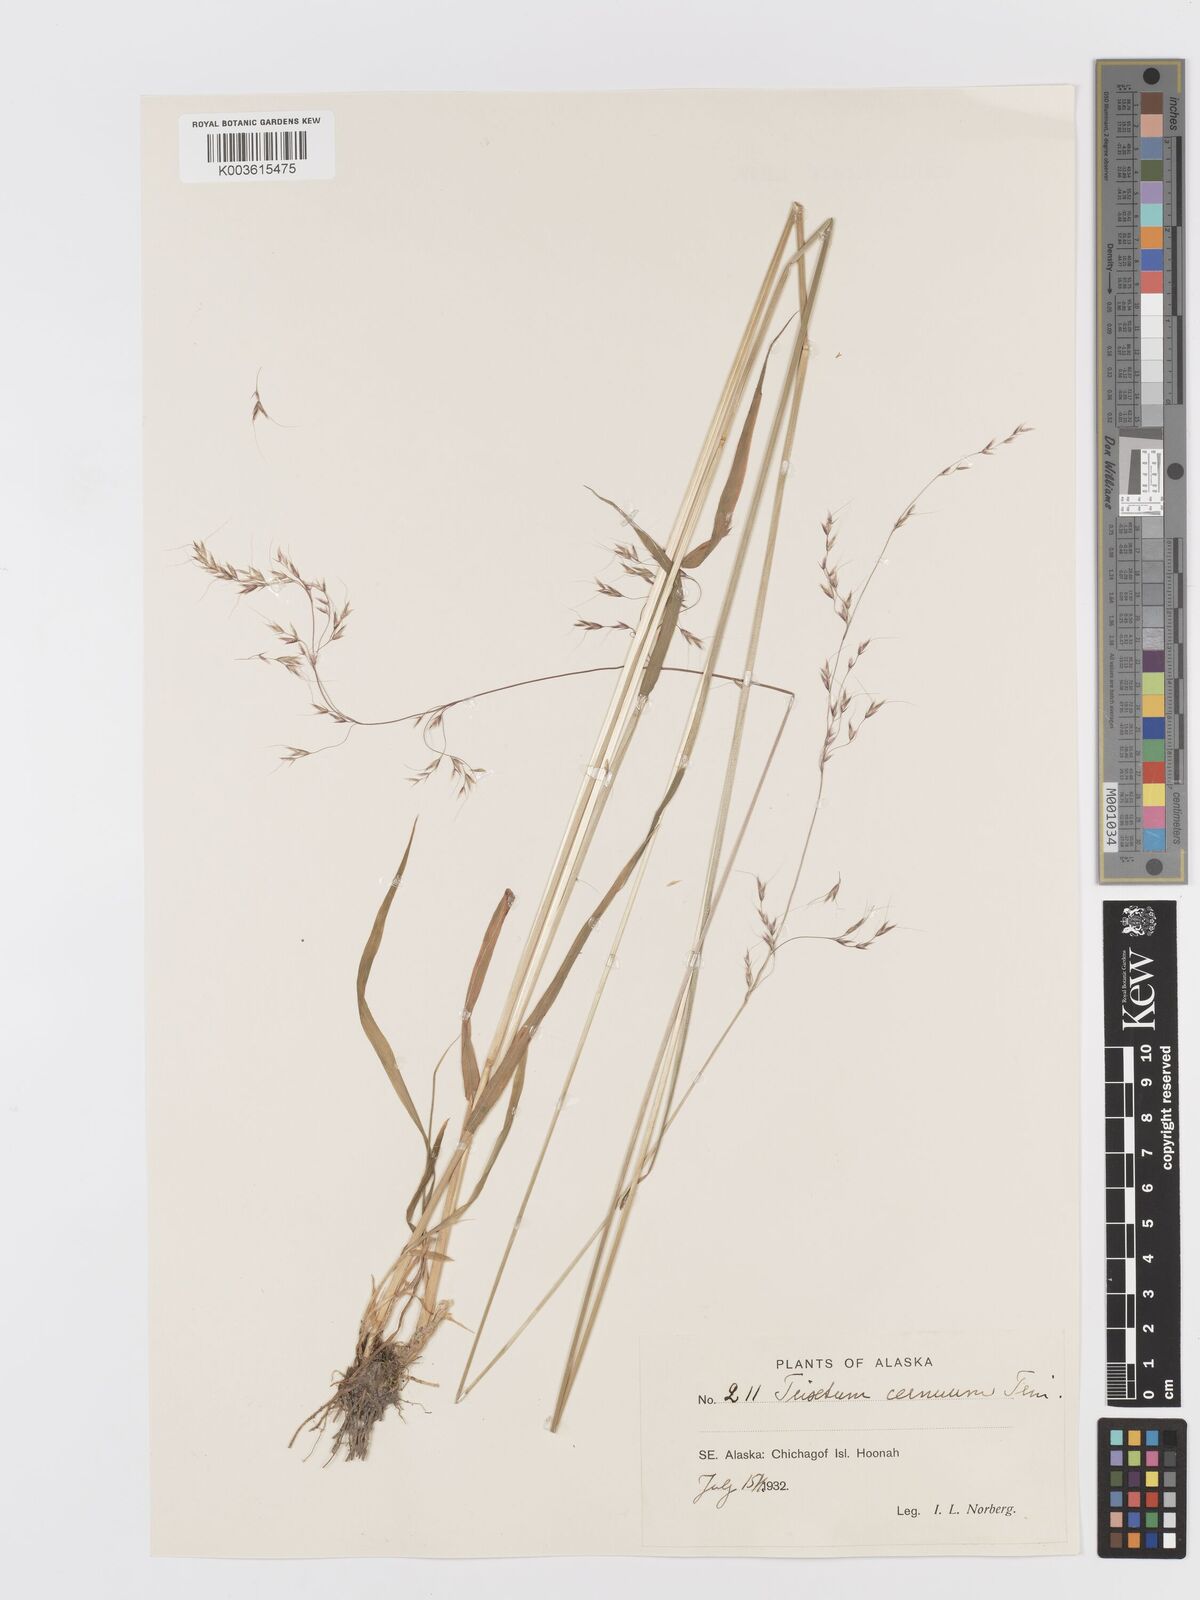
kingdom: Plantae
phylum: Tracheophyta
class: Liliopsida
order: Poales
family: Poaceae
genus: Graphephorum
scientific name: Graphephorum cernuum
